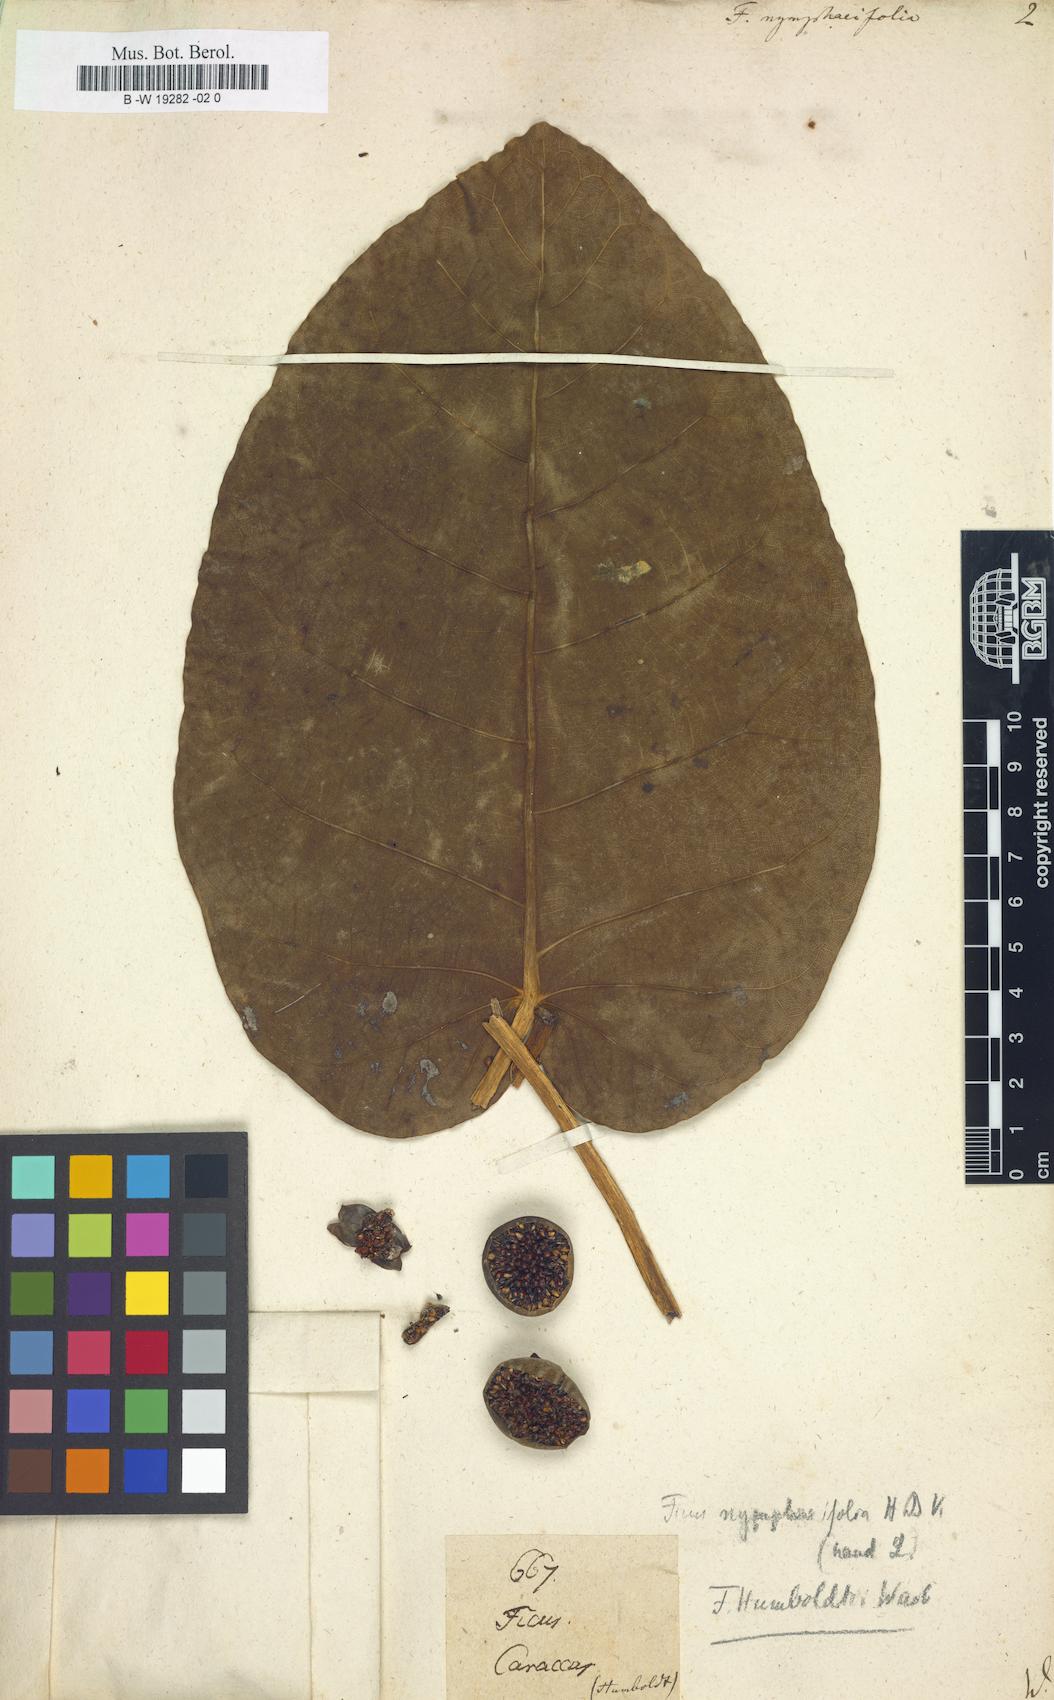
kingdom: Plantae
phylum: Tracheophyta
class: Magnoliopsida
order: Rosales
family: Moraceae
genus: Ficus
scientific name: Ficus nymphaeifolia
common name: Fig
